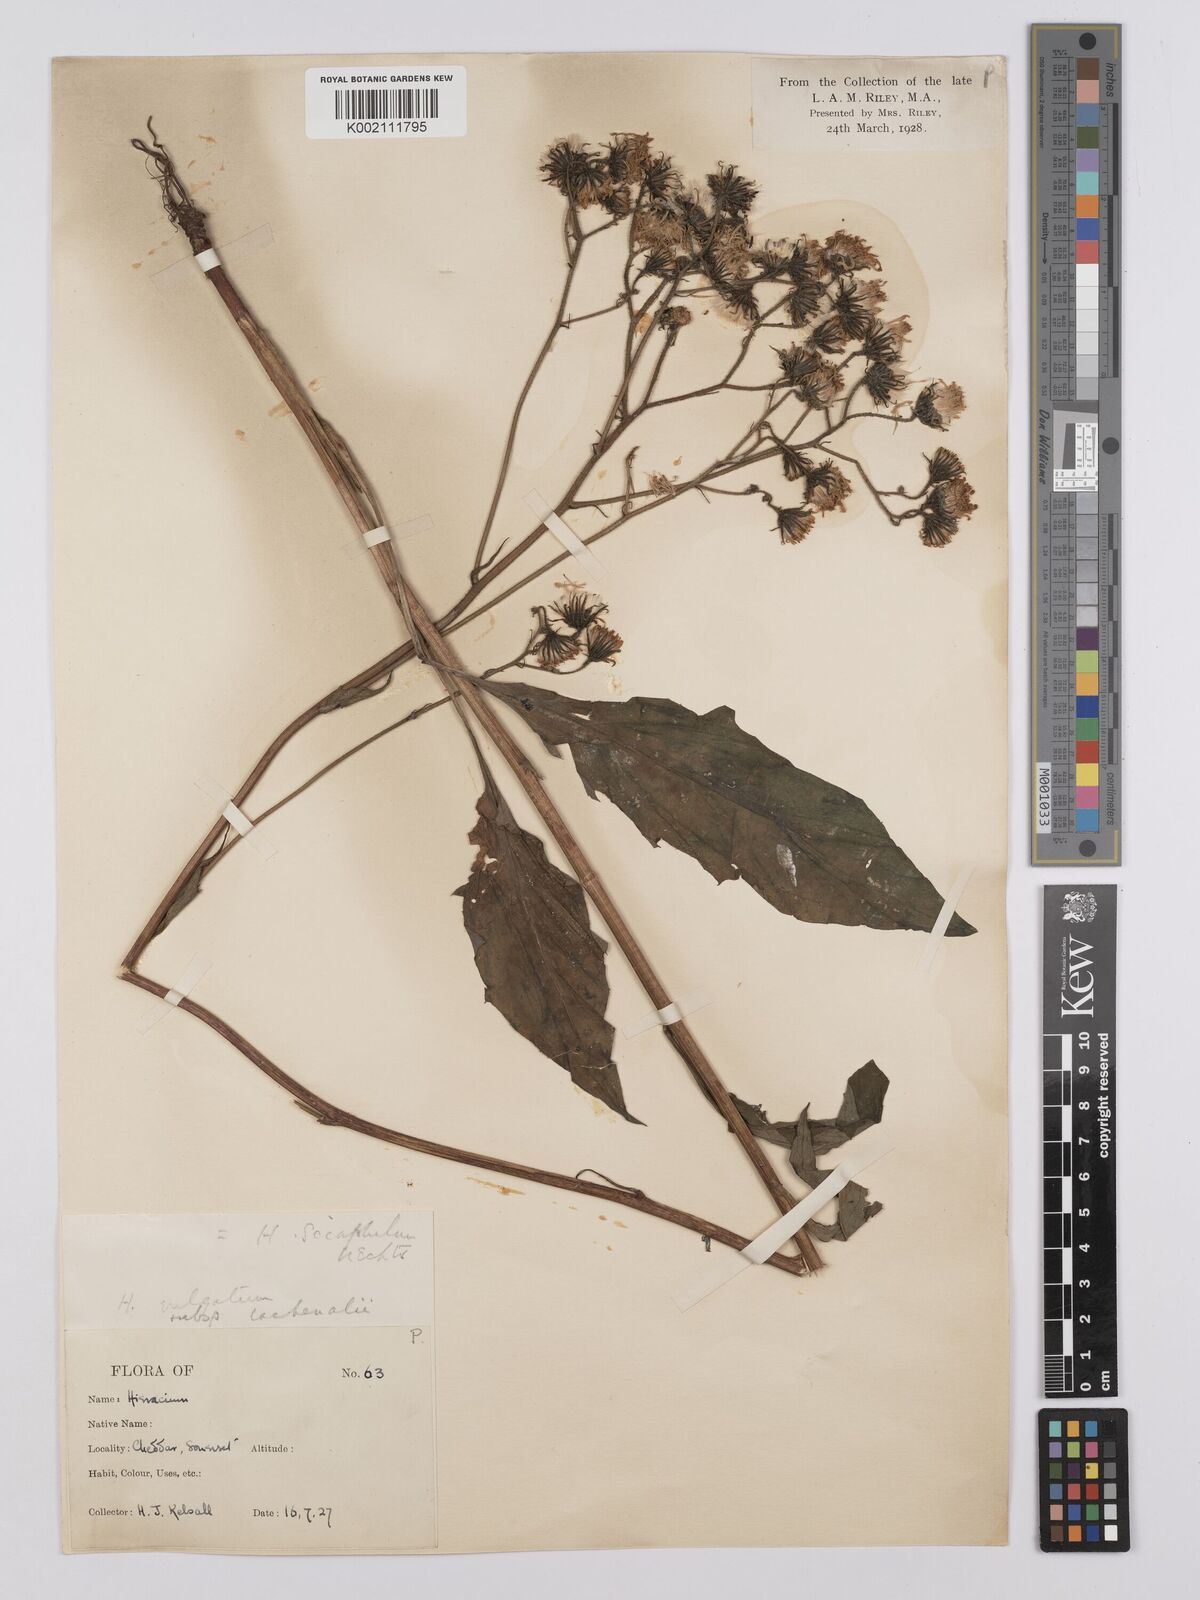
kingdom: Plantae
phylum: Tracheophyta
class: Magnoliopsida
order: Asterales
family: Asteraceae
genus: Hieracium
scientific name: Hieracium lachenalii
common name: Common hawkweed
